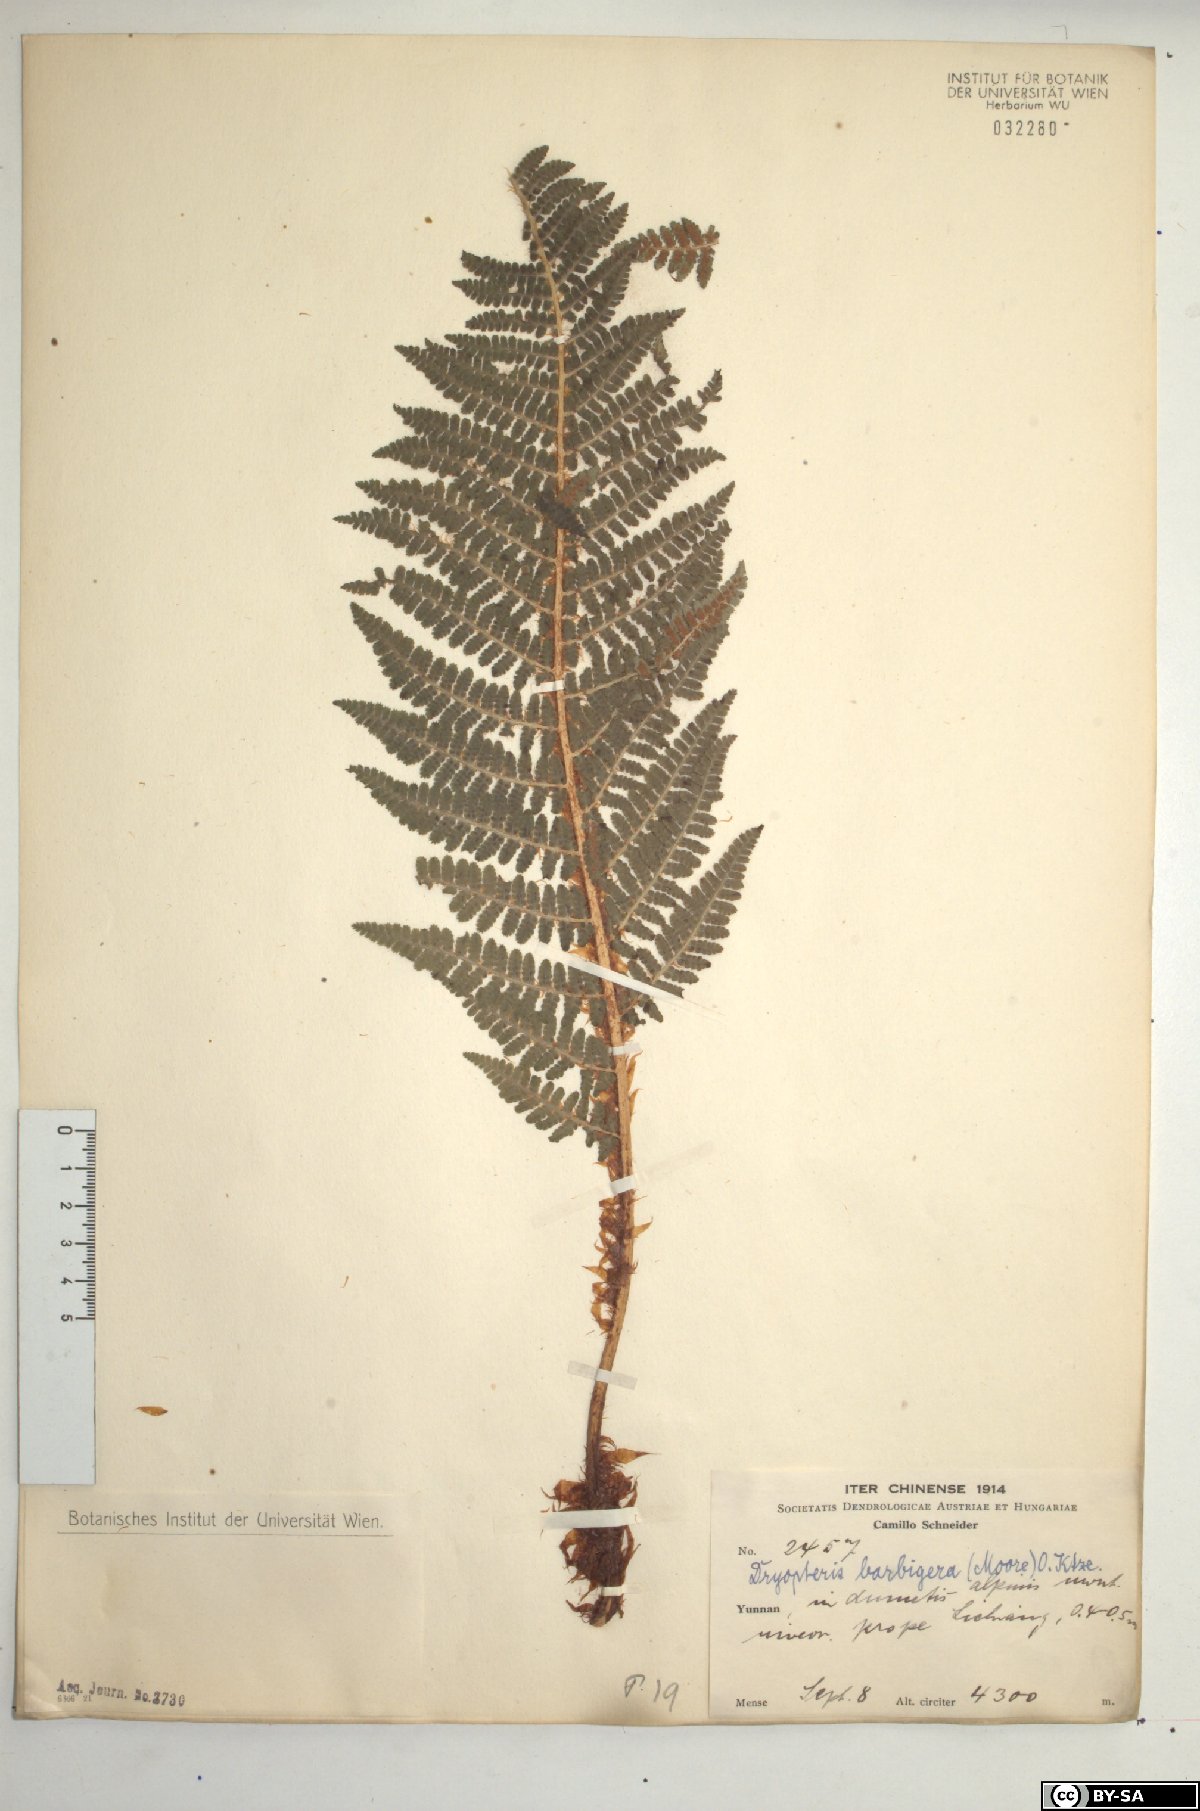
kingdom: Plantae
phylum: Tracheophyta
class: Polypodiopsida
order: Polypodiales
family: Dryopteridaceae
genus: Dryopteris
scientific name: Dryopteris barbigera
